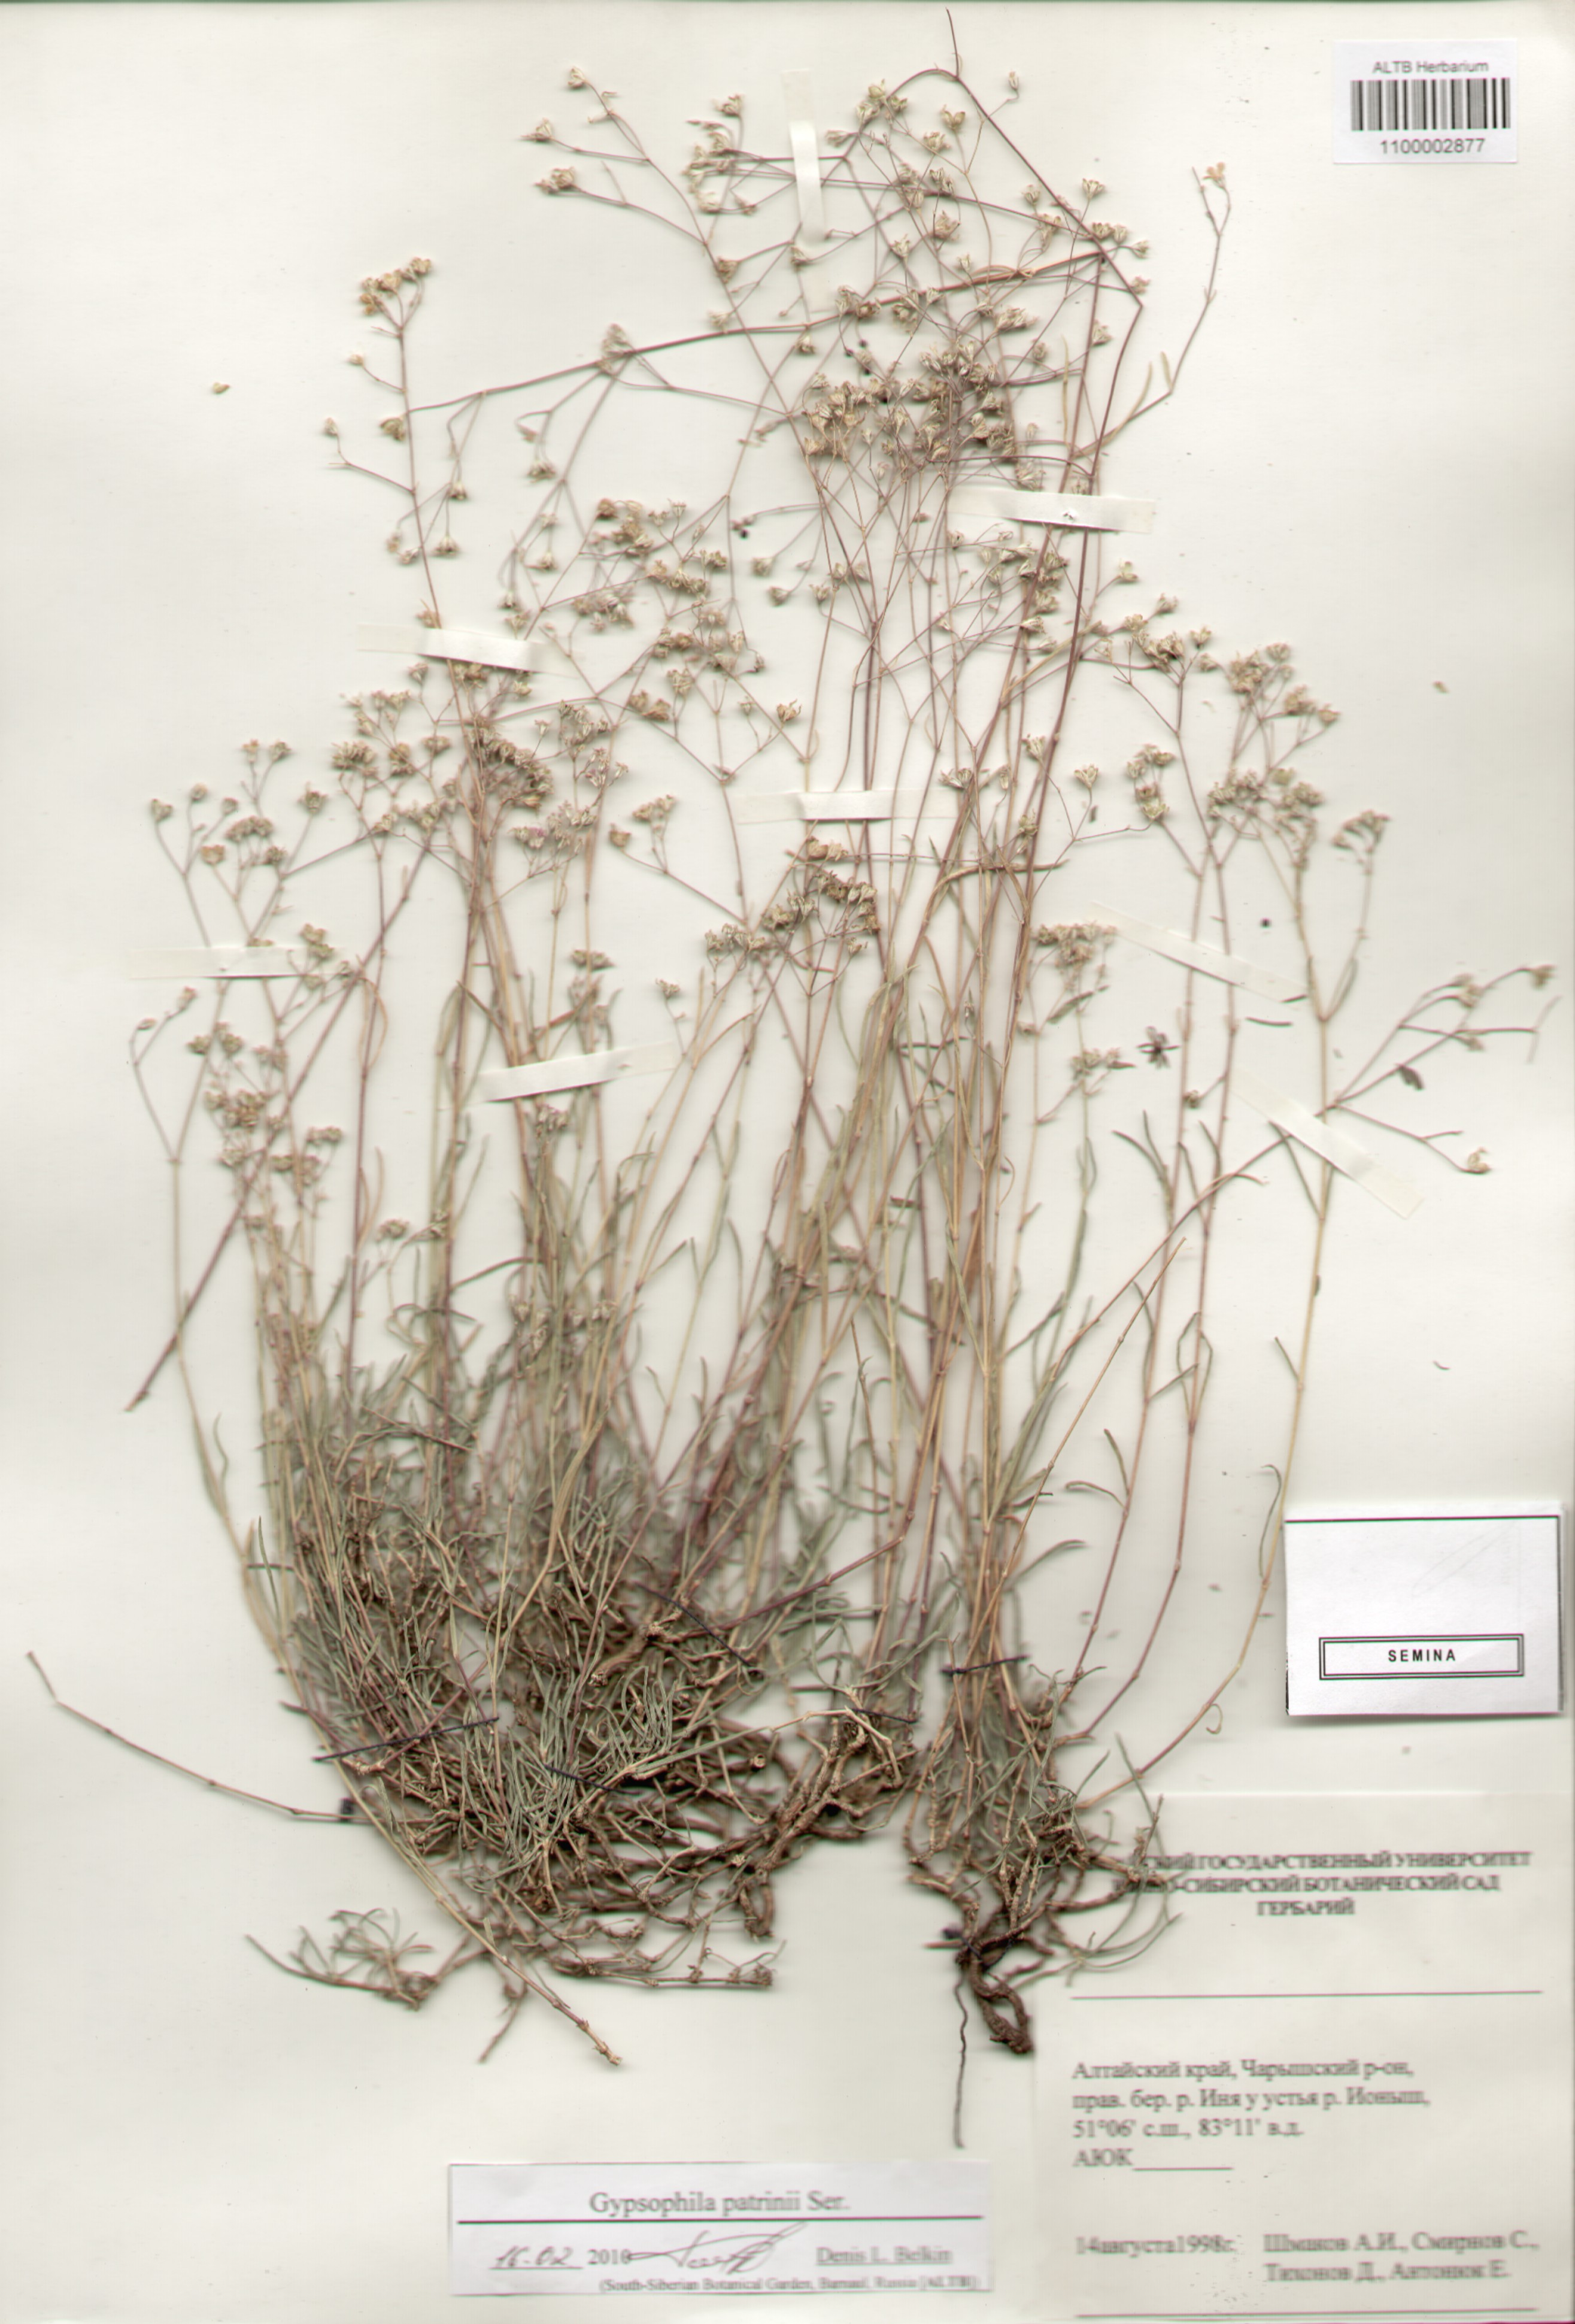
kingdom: Plantae
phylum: Tracheophyta
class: Magnoliopsida
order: Caryophyllales
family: Caryophyllaceae
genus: Gypsophila
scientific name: Gypsophila patrinii
